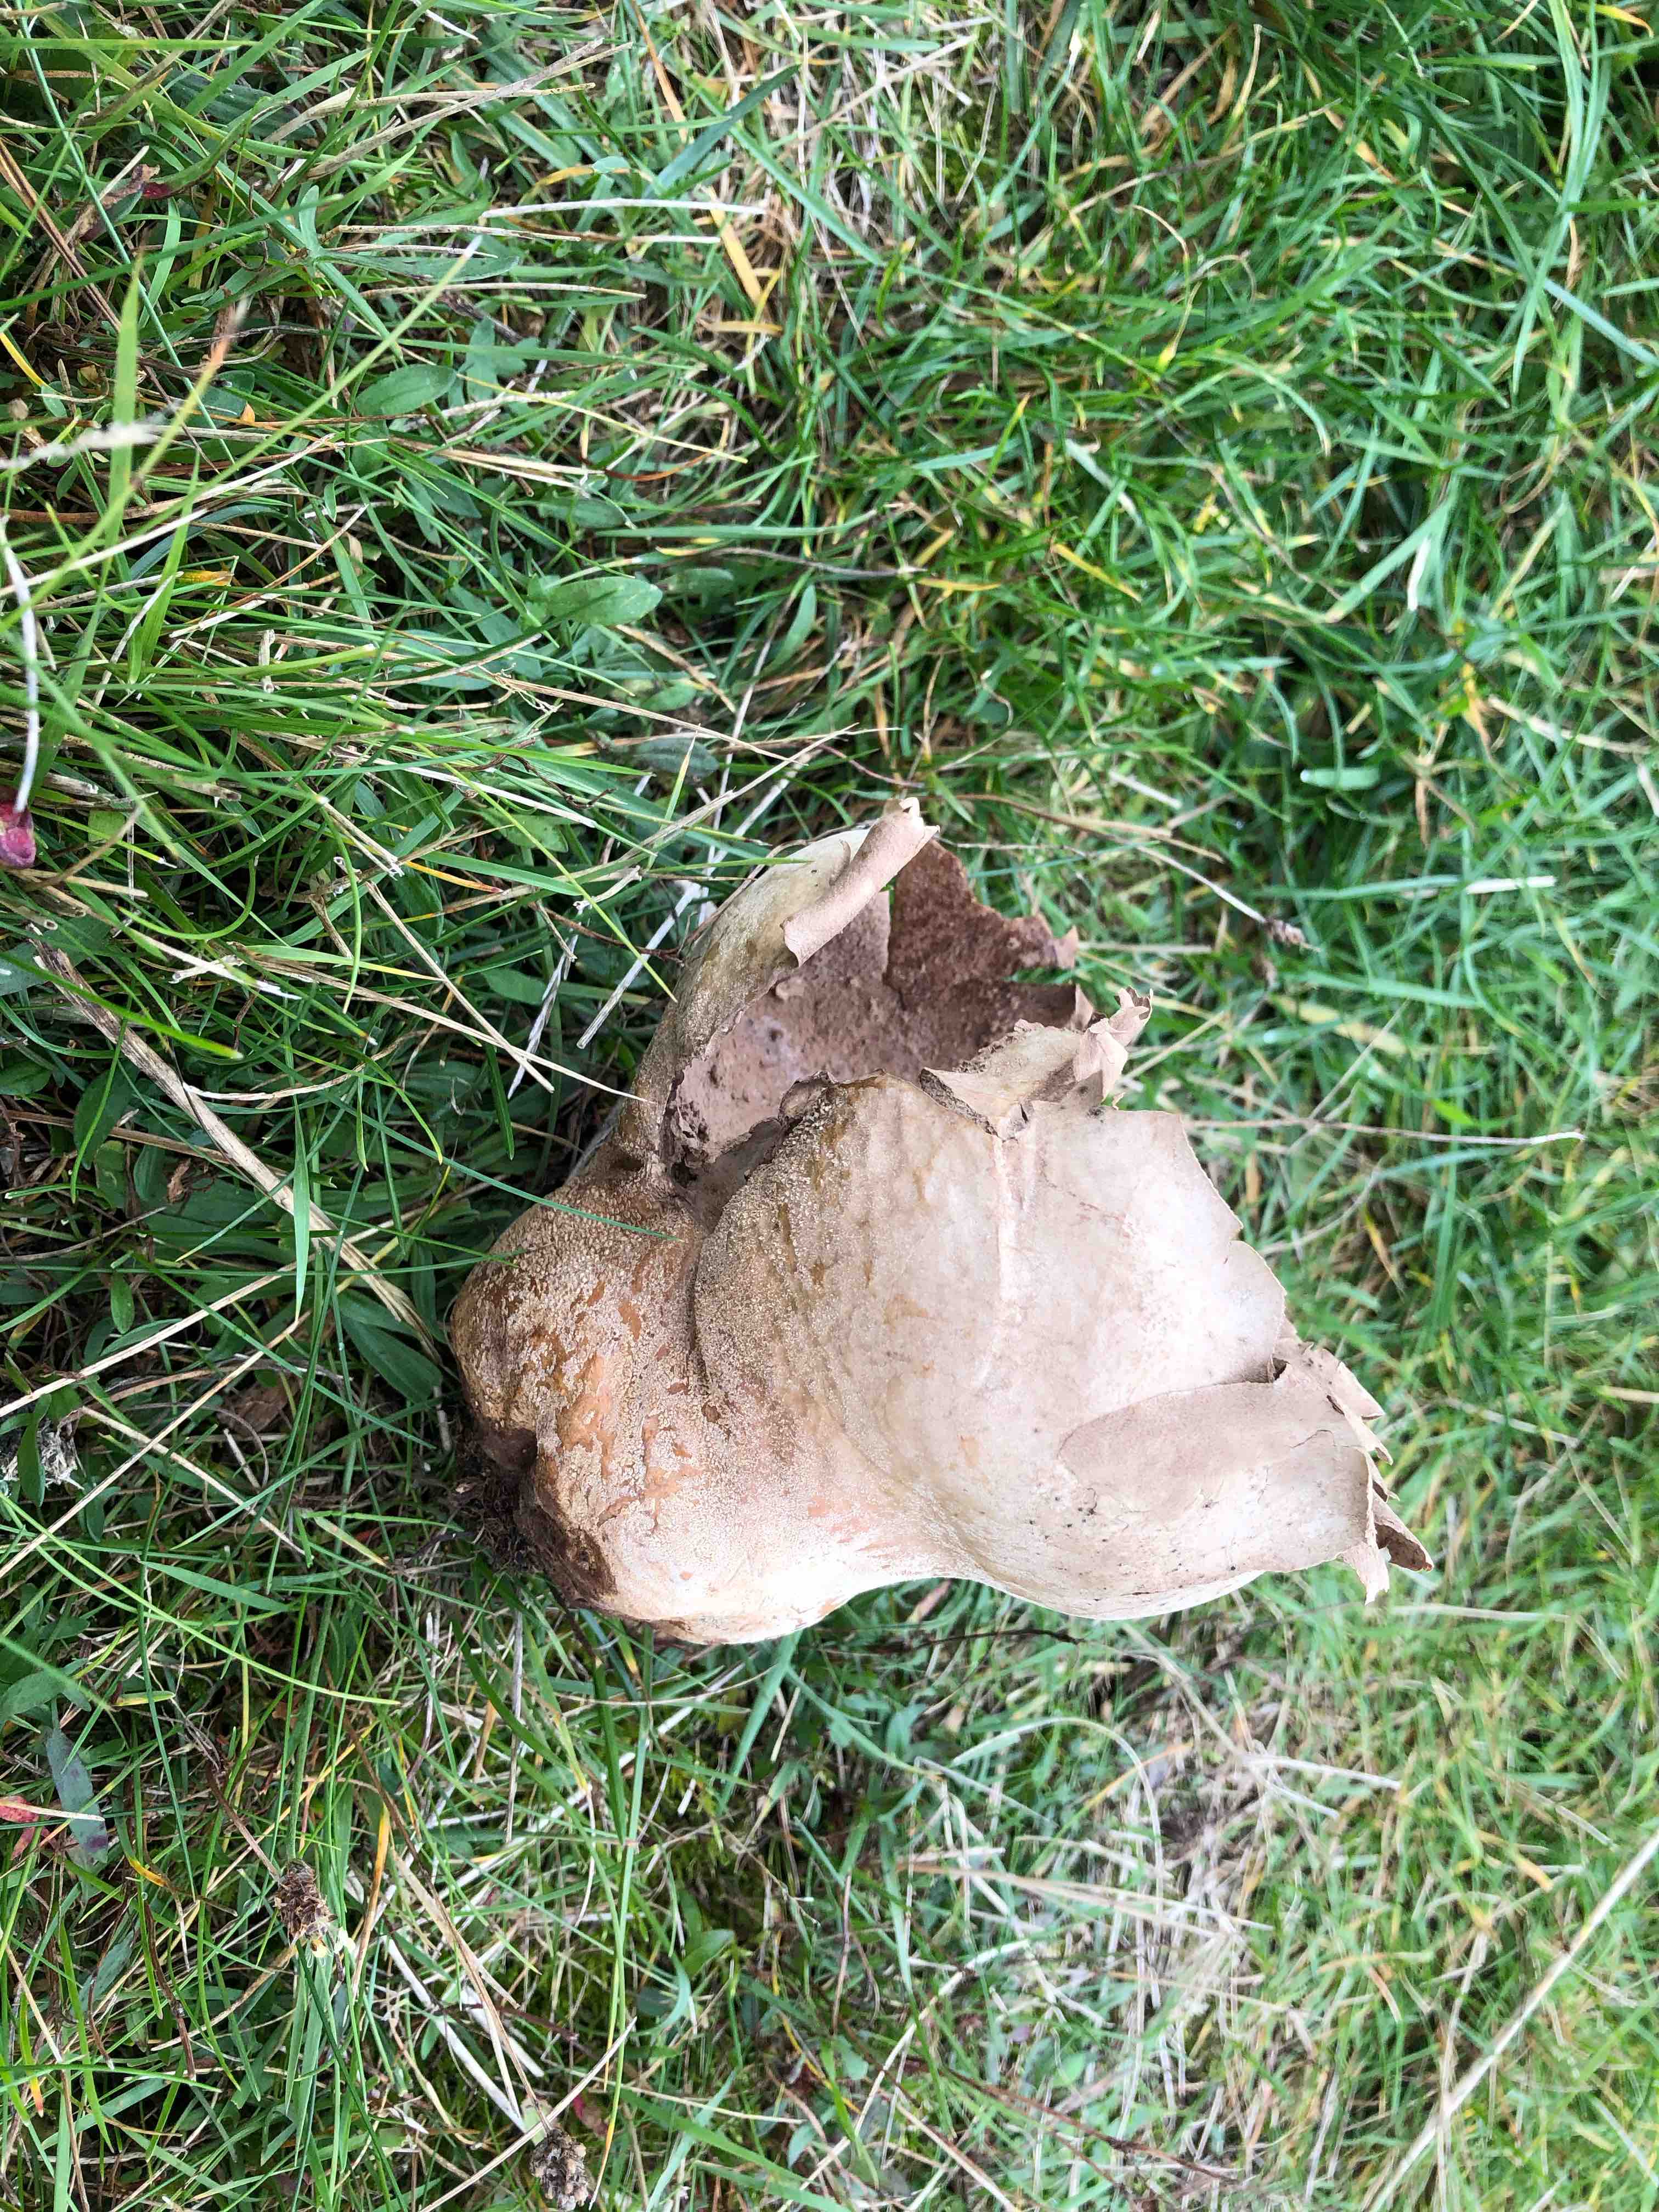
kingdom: Fungi
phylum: Basidiomycota
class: Agaricomycetes
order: Agaricales
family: Lycoperdaceae
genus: Bovistella
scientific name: Bovistella utriformis
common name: skællet støvbold
